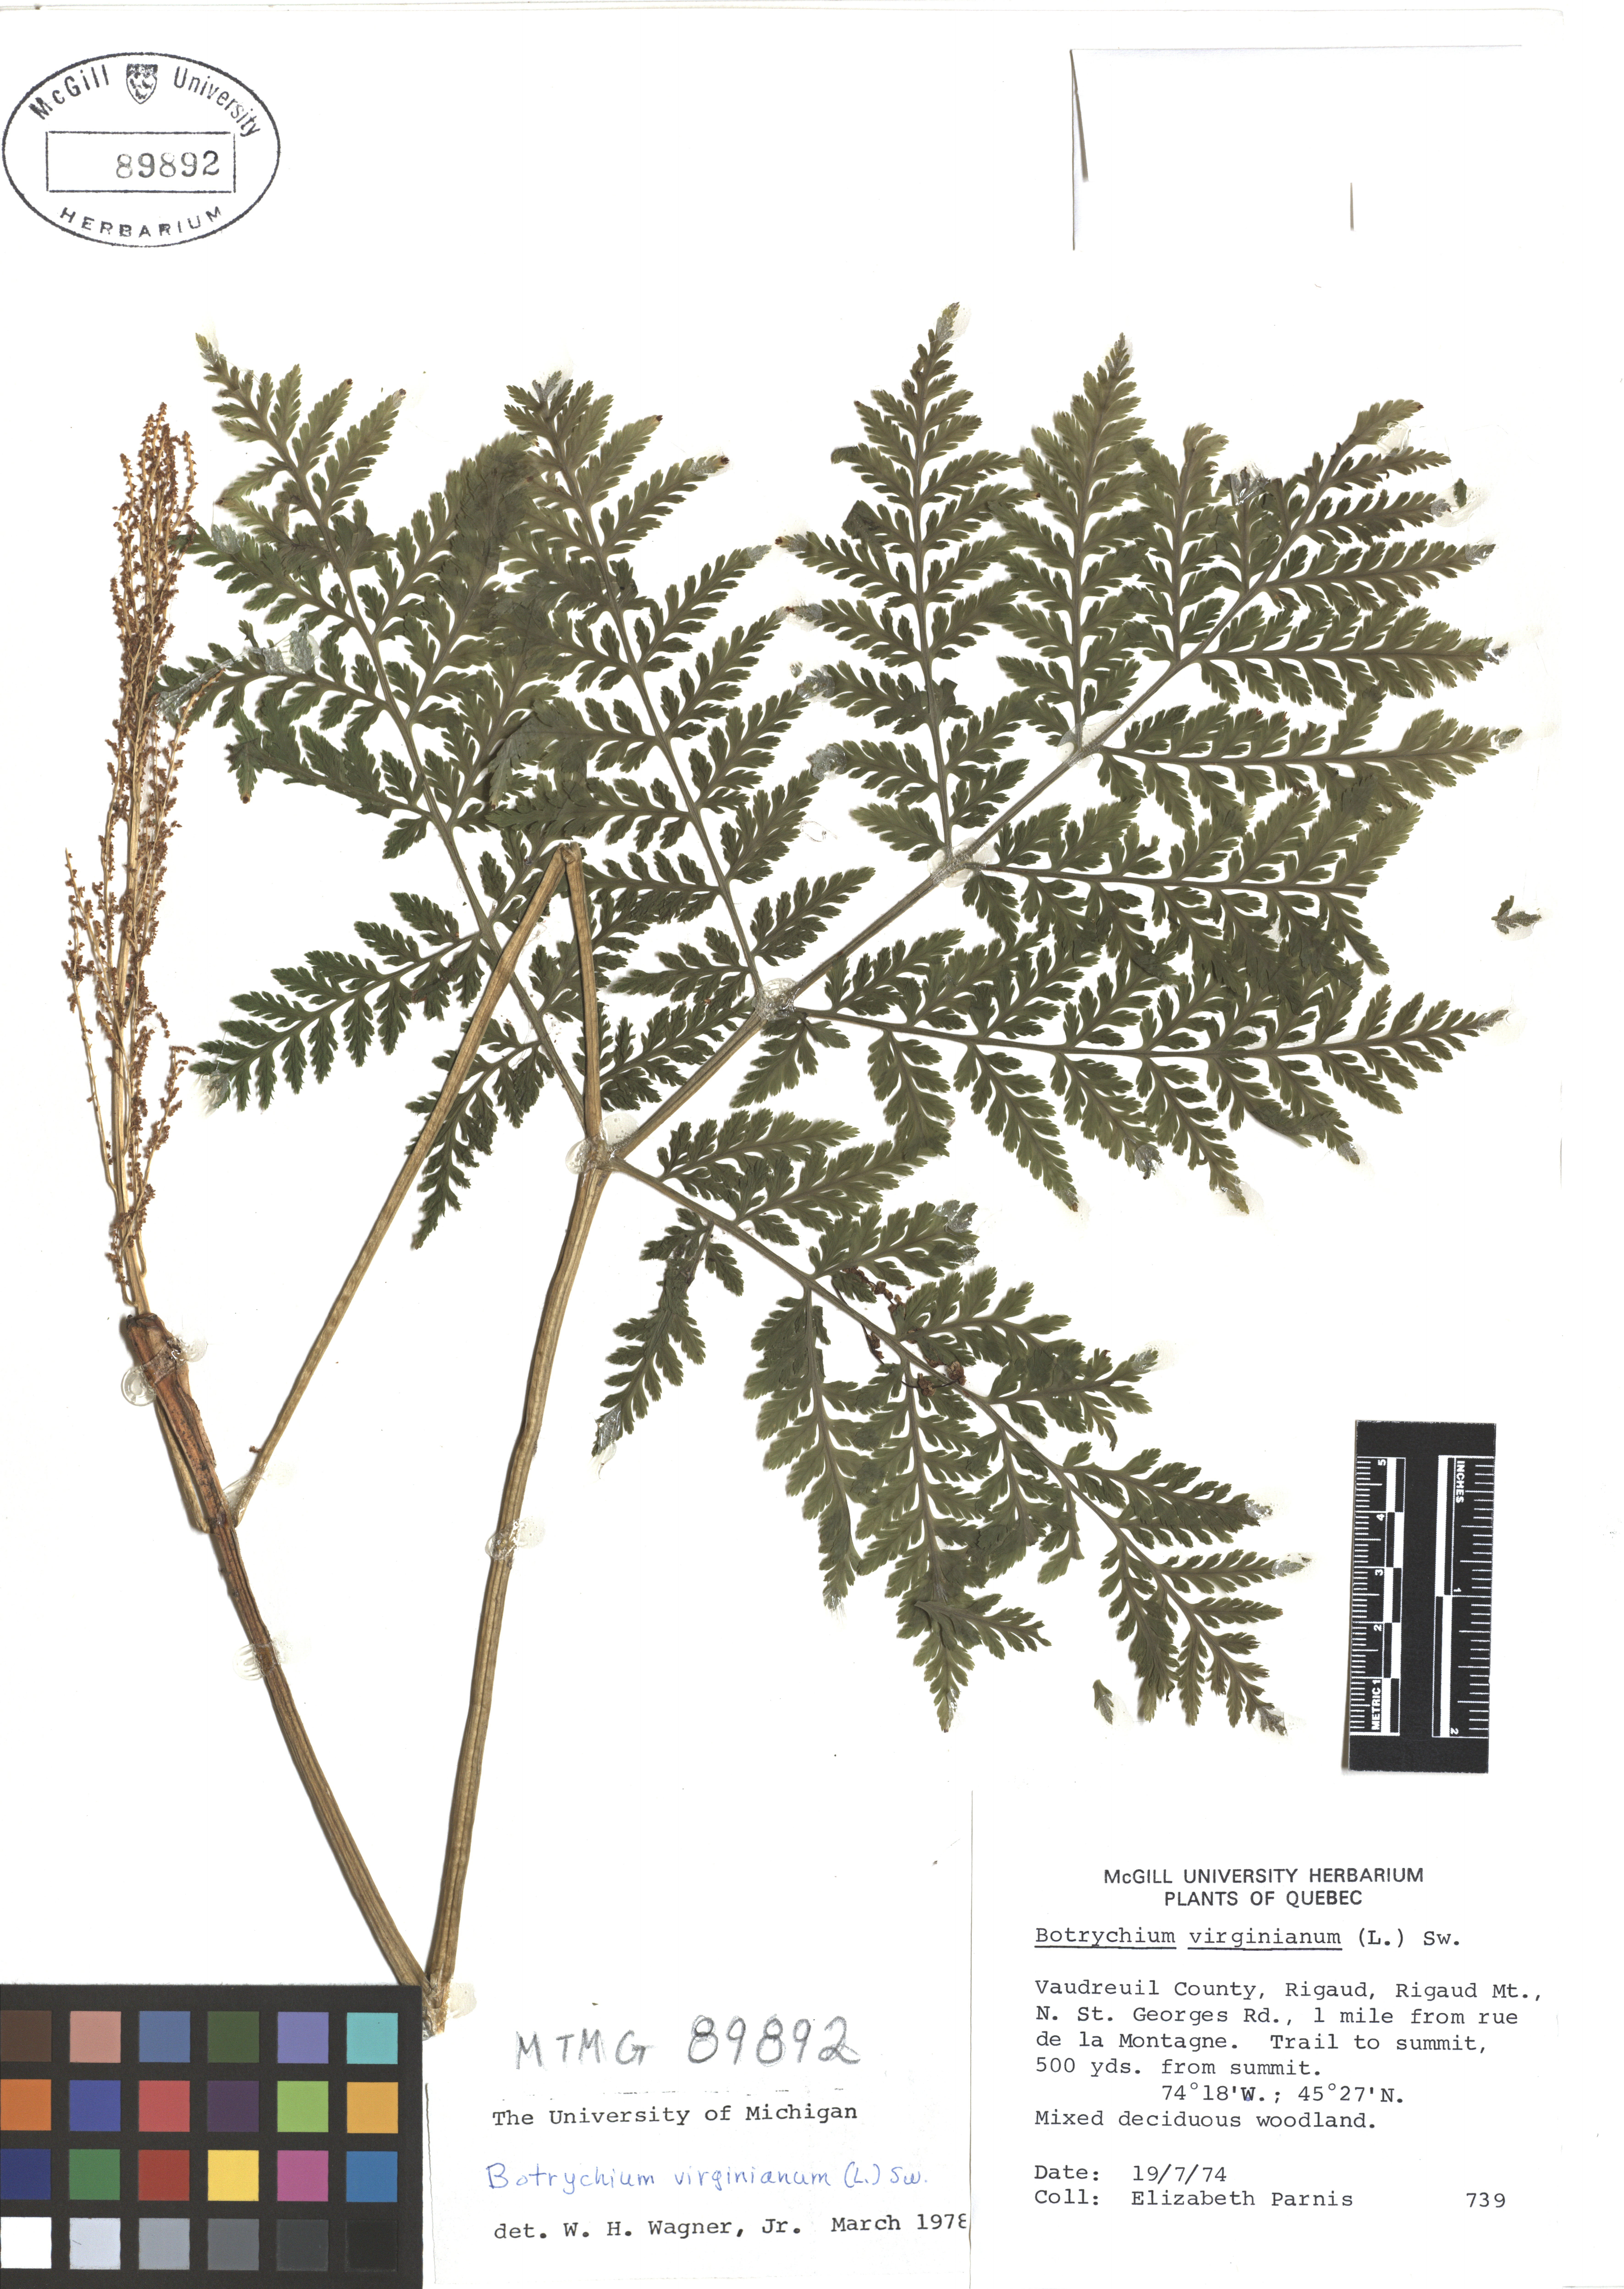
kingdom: Plantae
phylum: Tracheophyta
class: Polypodiopsida
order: Ophioglossales
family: Ophioglossaceae
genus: Botrypus
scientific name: Botrypus virginianus
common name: Common grapefern
